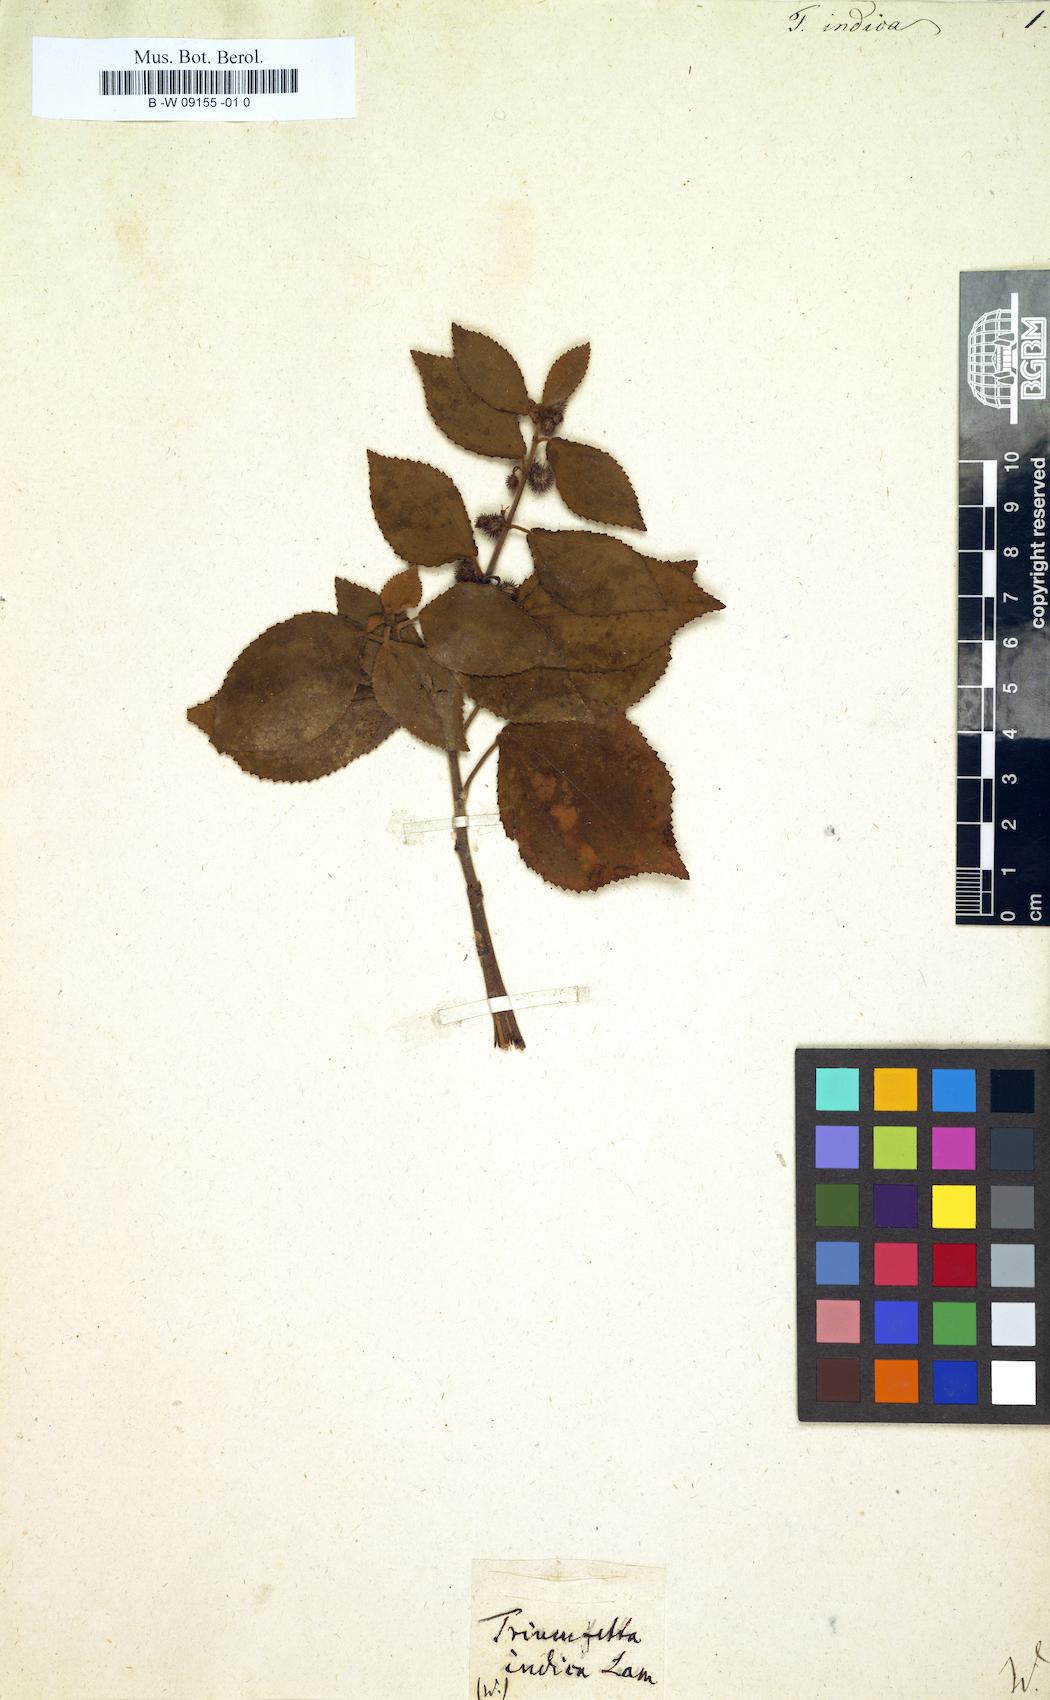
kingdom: Plantae
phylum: Tracheophyta
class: Magnoliopsida
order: Malvales
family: Malvaceae
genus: Triumfetta
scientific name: Triumfetta
